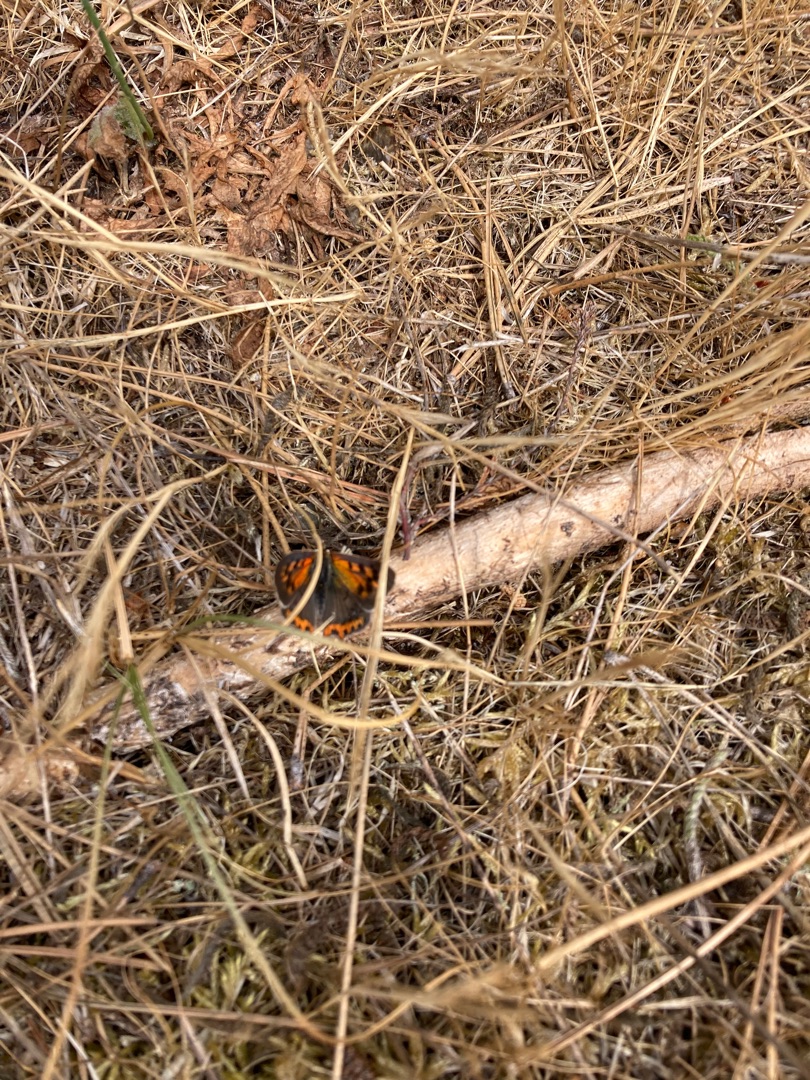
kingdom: Animalia
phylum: Arthropoda
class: Insecta
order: Lepidoptera
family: Lycaenidae
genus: Lycaena
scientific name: Lycaena phlaeas
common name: Lille ildfugl
